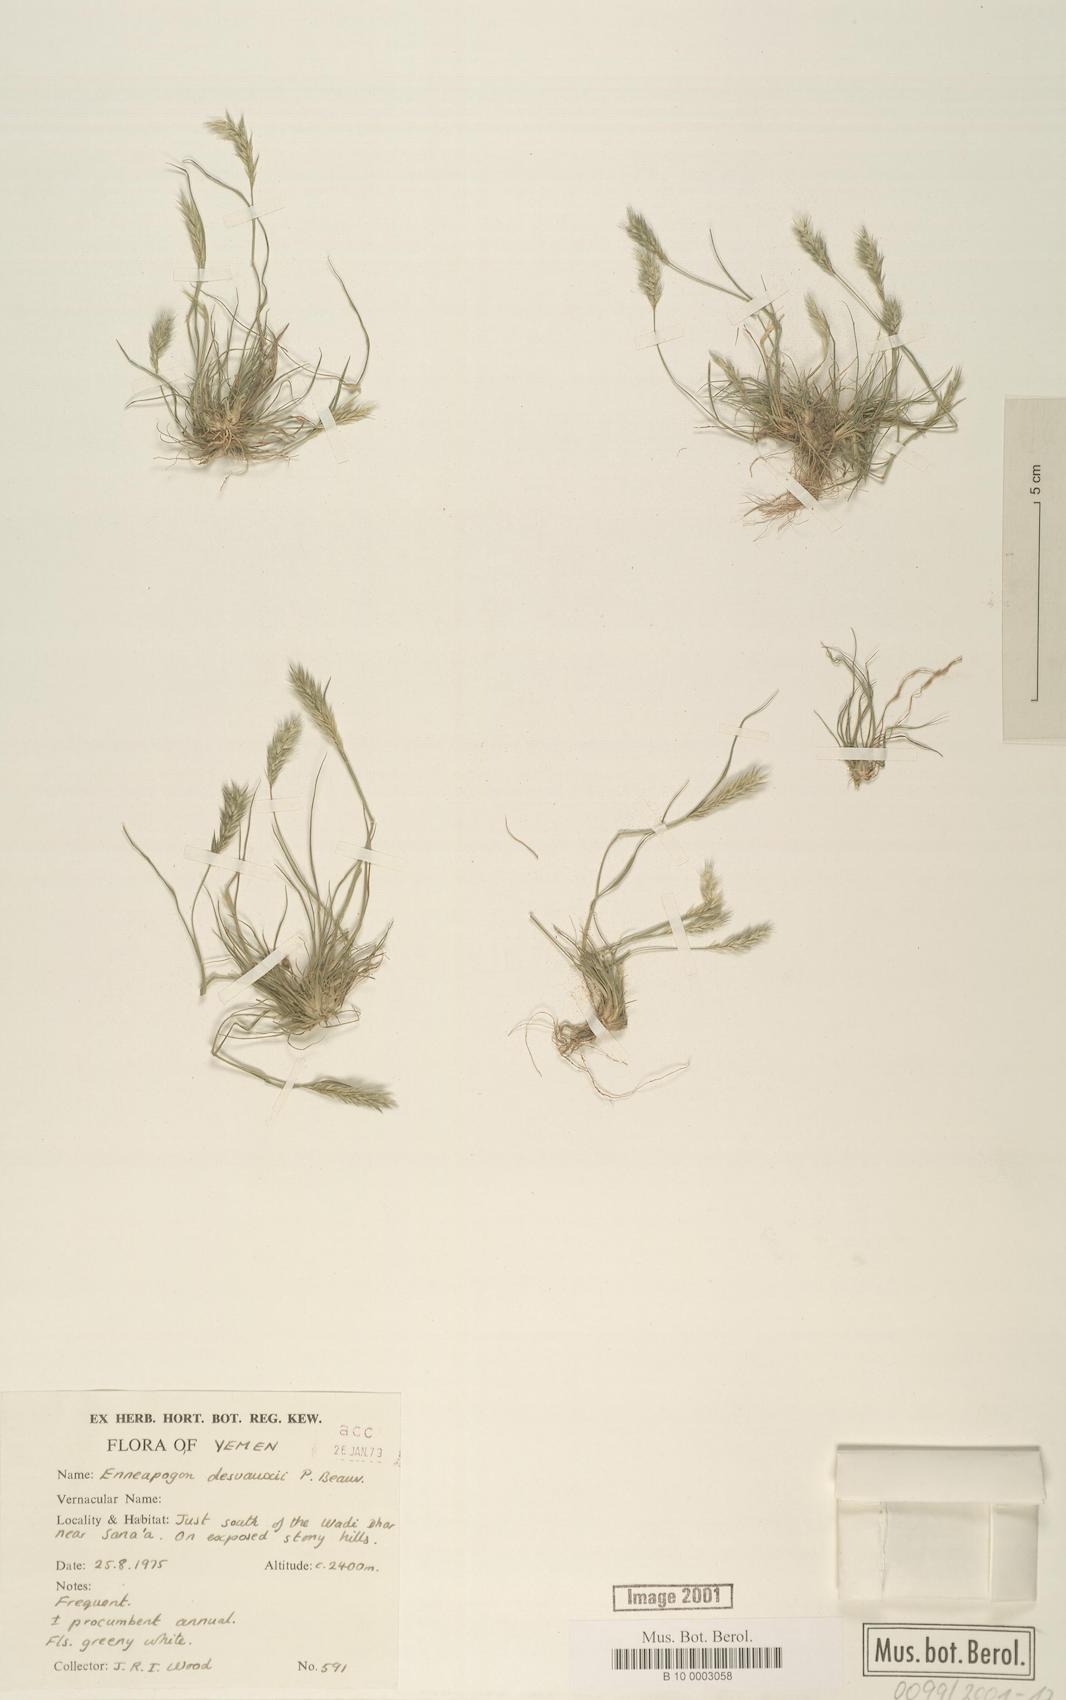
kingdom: Plantae
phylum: Tracheophyta
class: Liliopsida
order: Poales
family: Poaceae
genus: Enneapogon
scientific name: Enneapogon desvauxii
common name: Feather pappus grass
